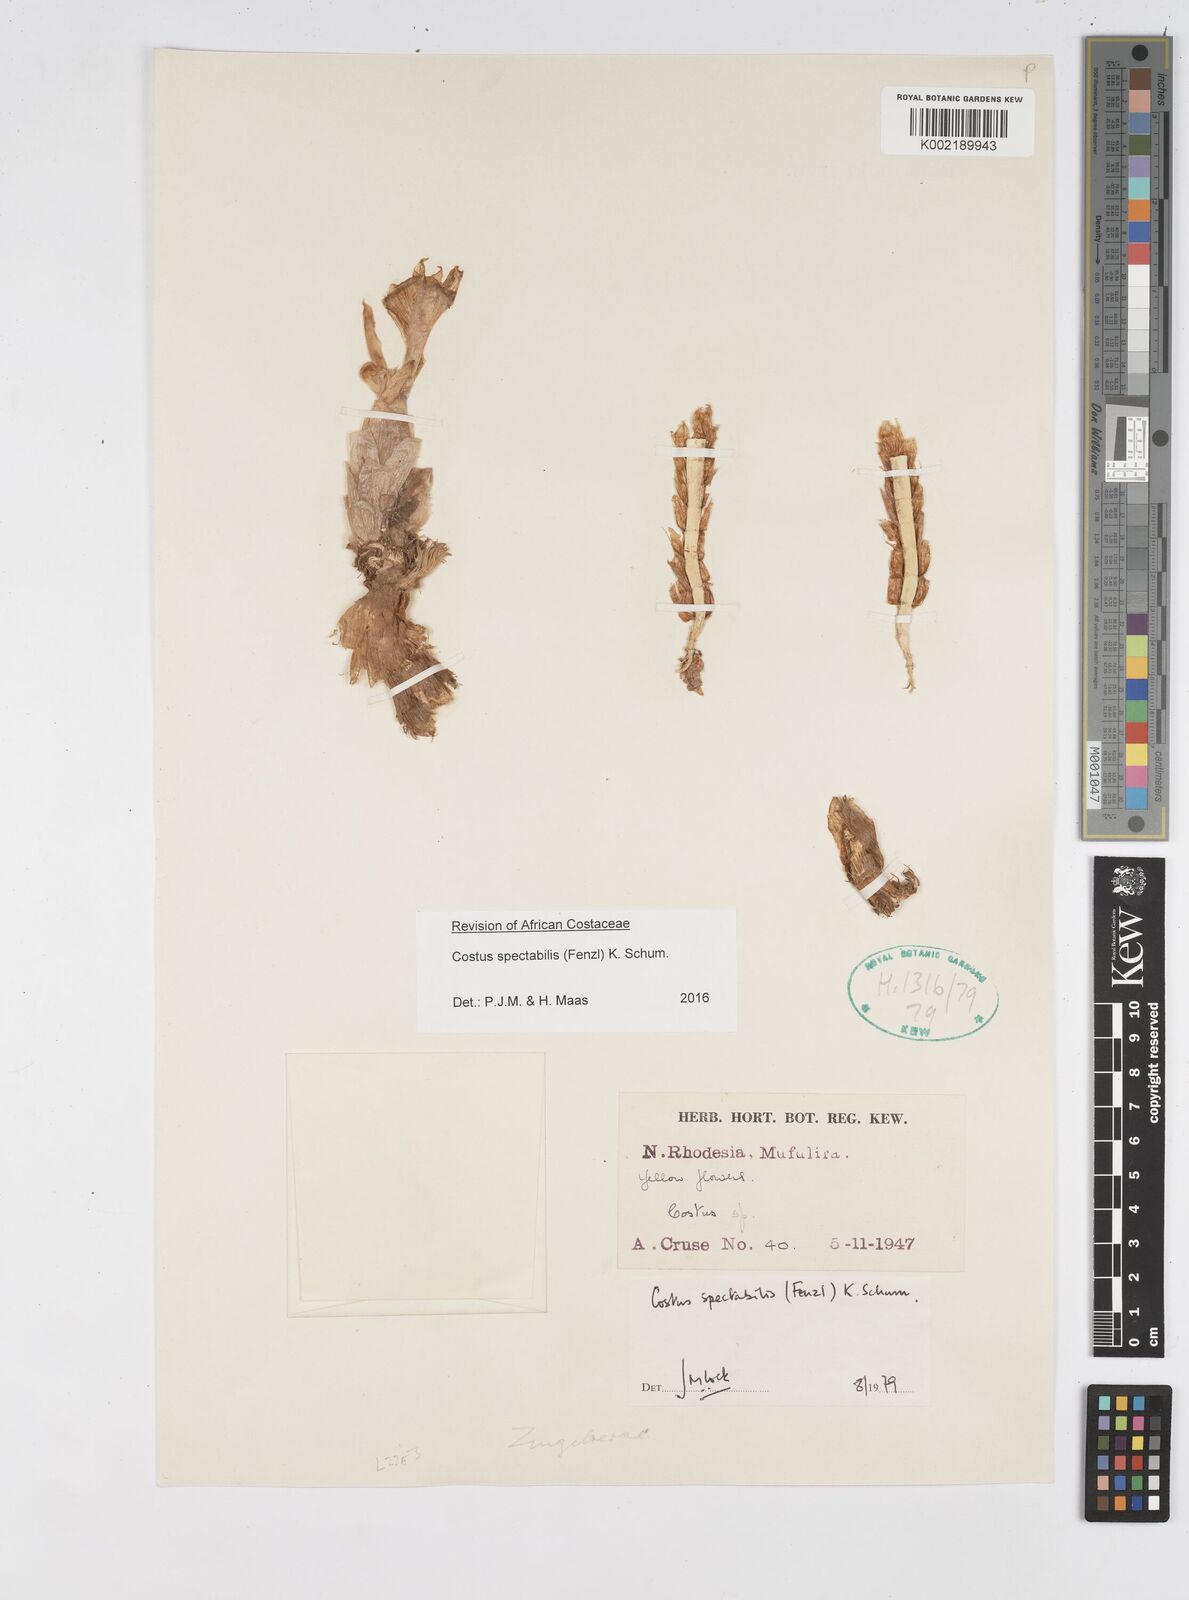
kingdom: Plantae
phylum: Tracheophyta
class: Liliopsida
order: Zingiberales
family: Costaceae
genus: Costus
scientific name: Costus spectabilis
